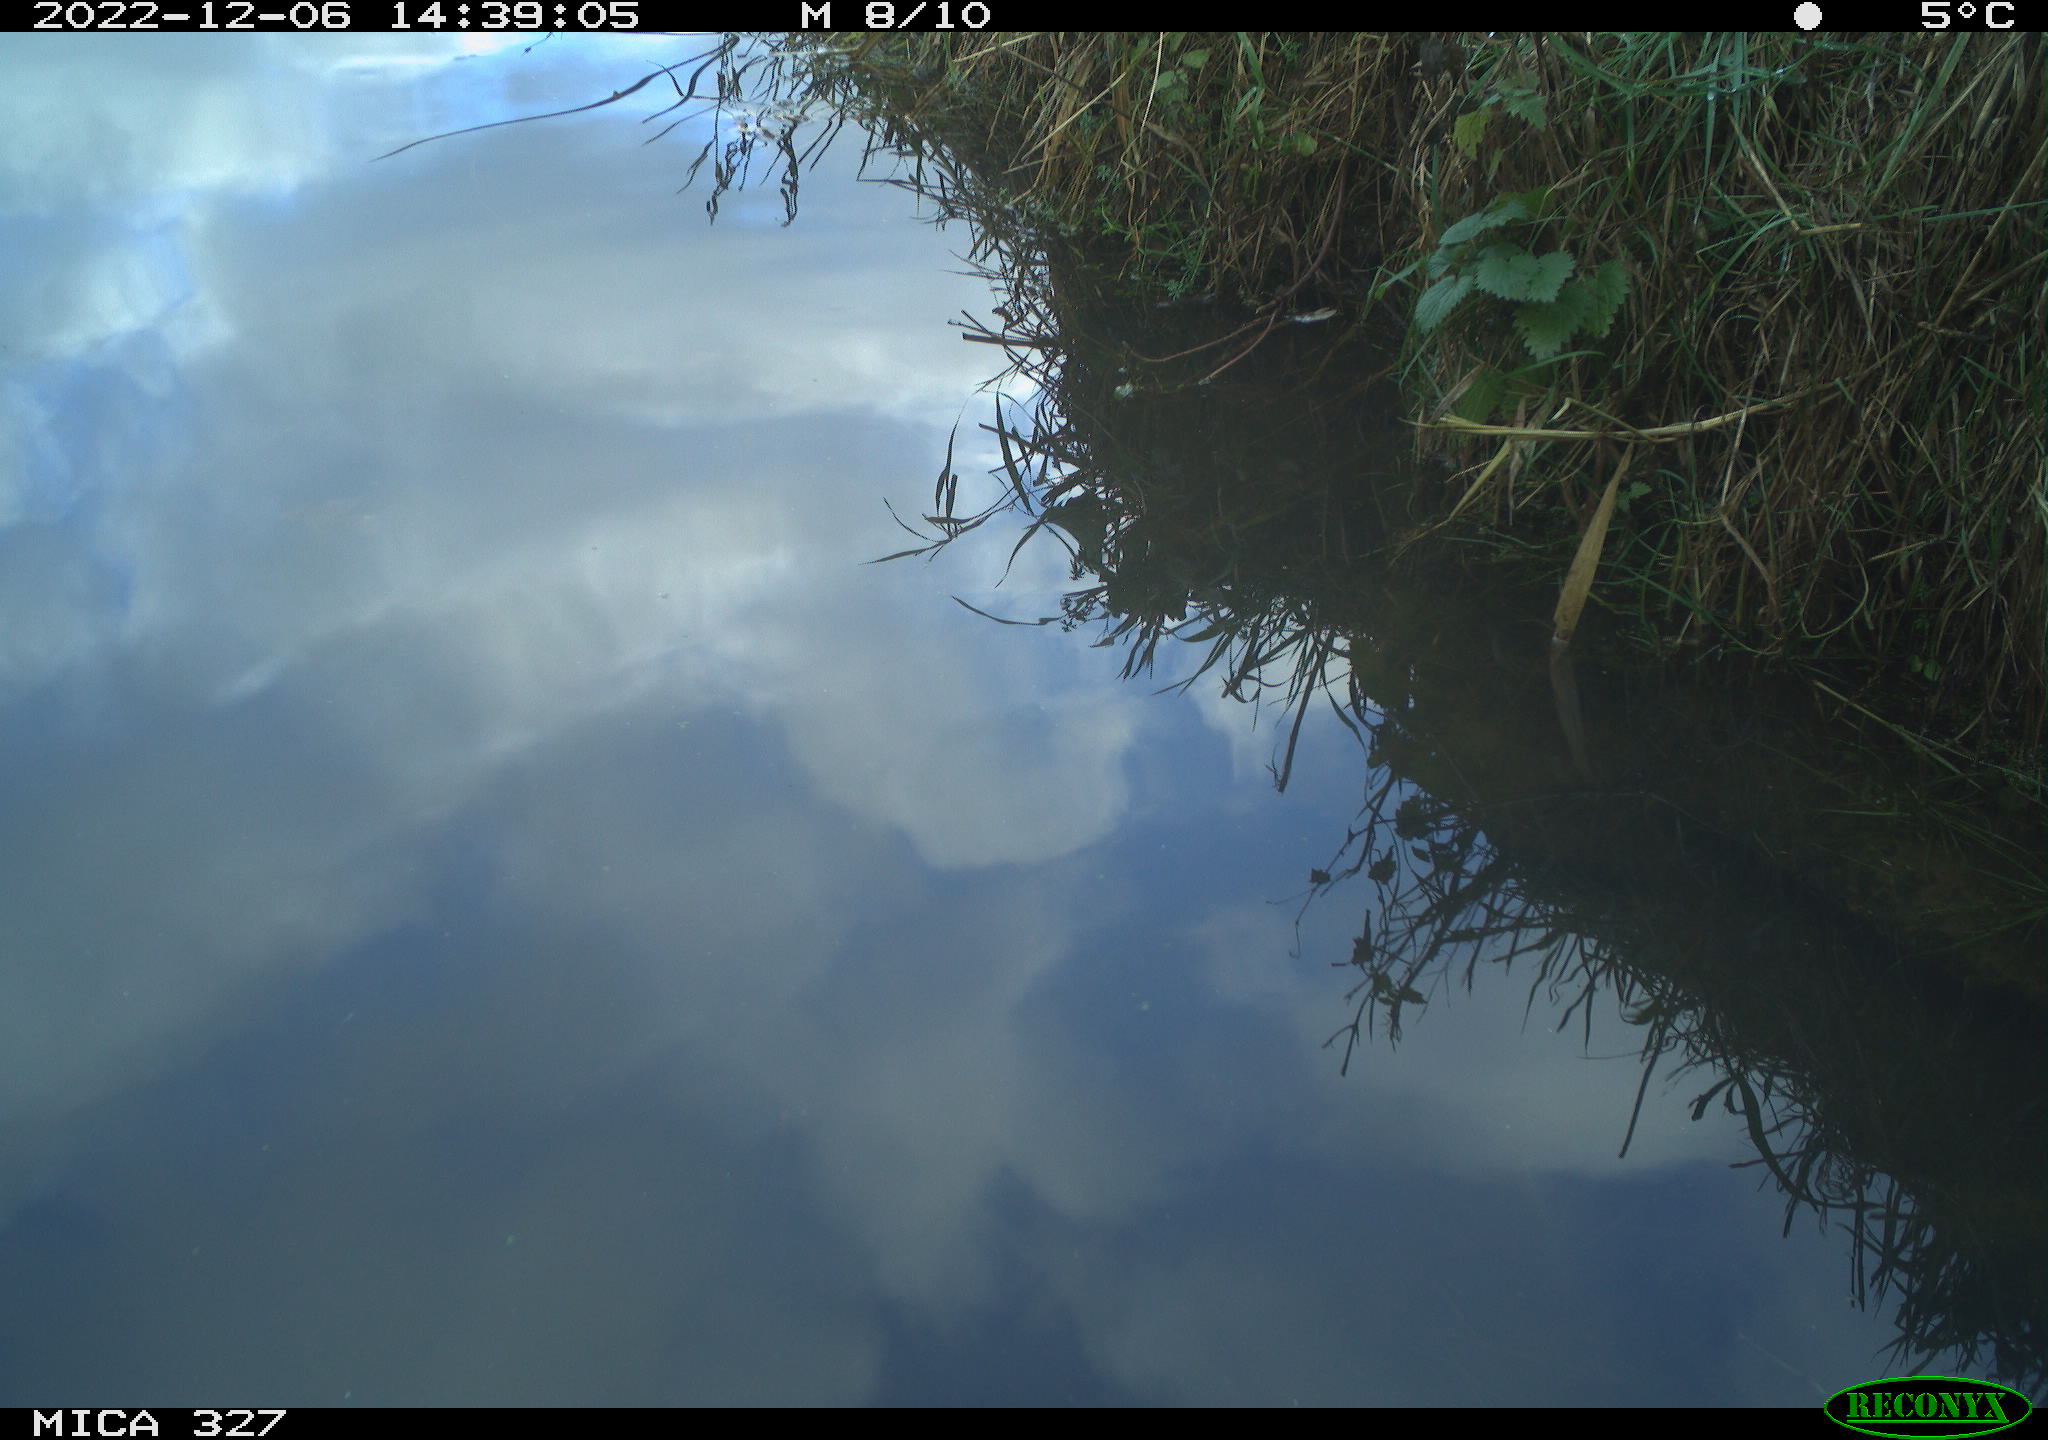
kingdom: Animalia
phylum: Chordata
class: Aves
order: Gruiformes
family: Rallidae
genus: Gallinula
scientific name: Gallinula chloropus
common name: Common moorhen
